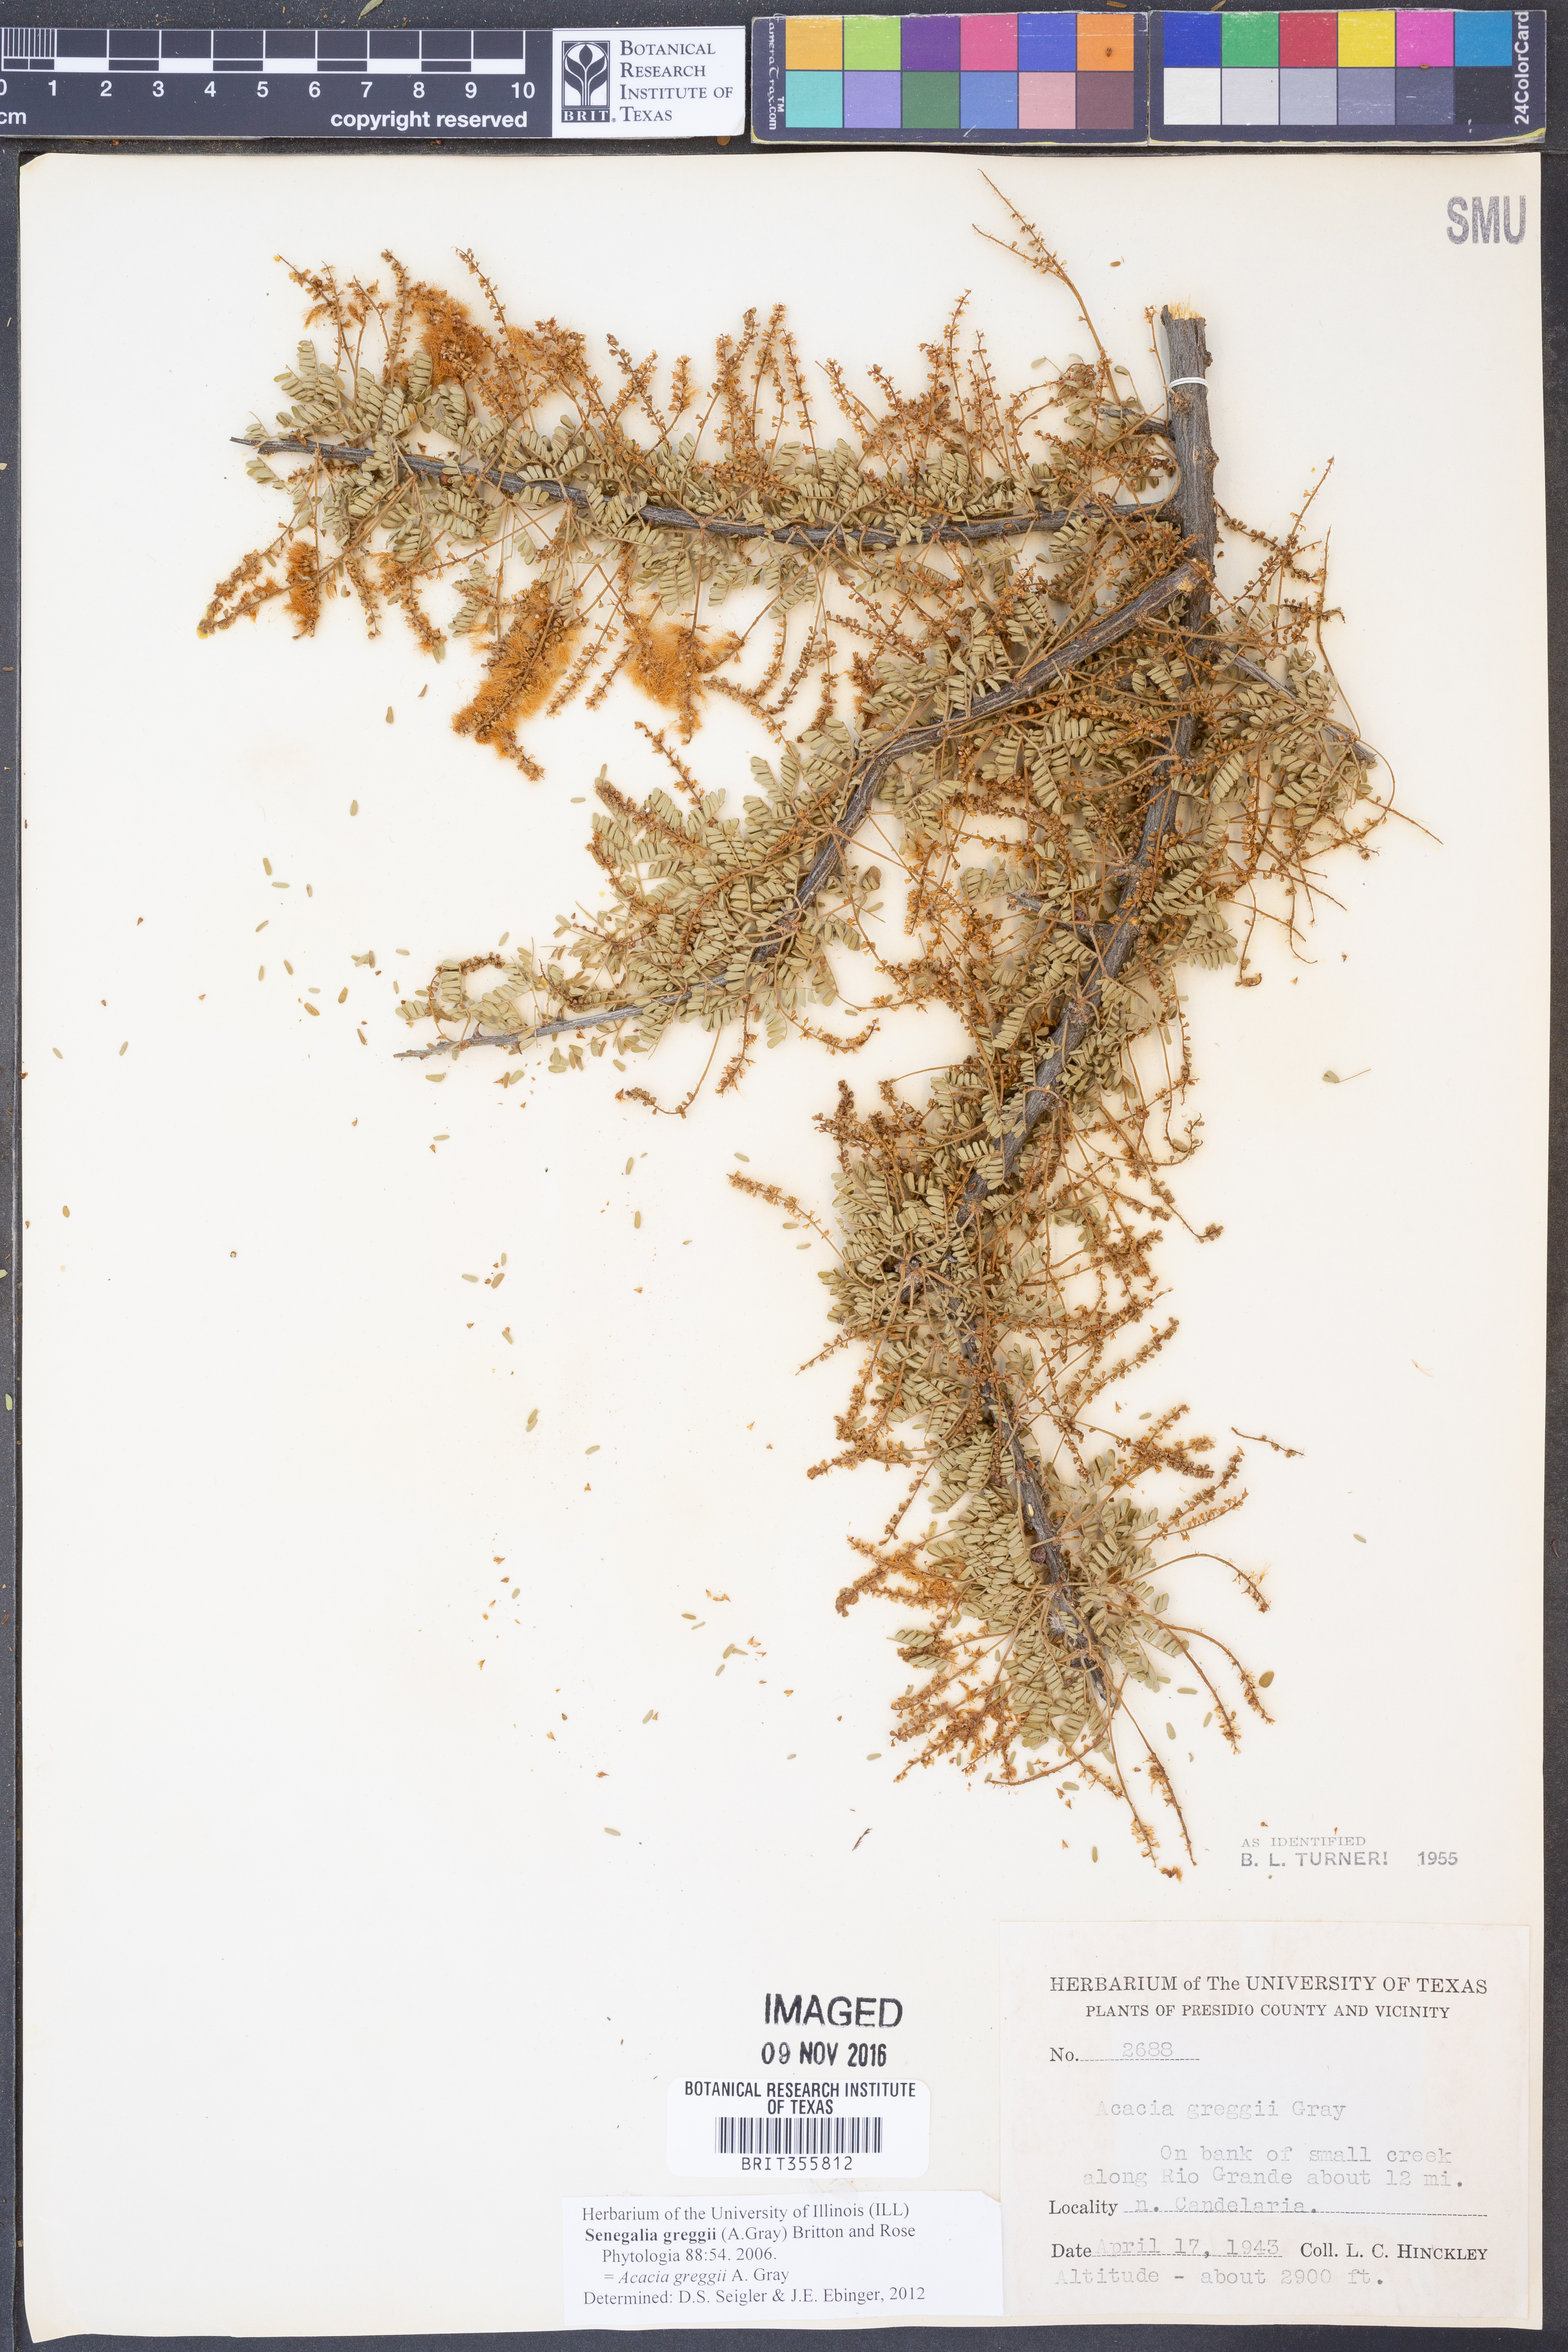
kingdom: Plantae
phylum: Tracheophyta
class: Magnoliopsida
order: Fabales
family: Fabaceae
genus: Senegalia
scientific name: Senegalia greggii
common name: Texas-mimosa
